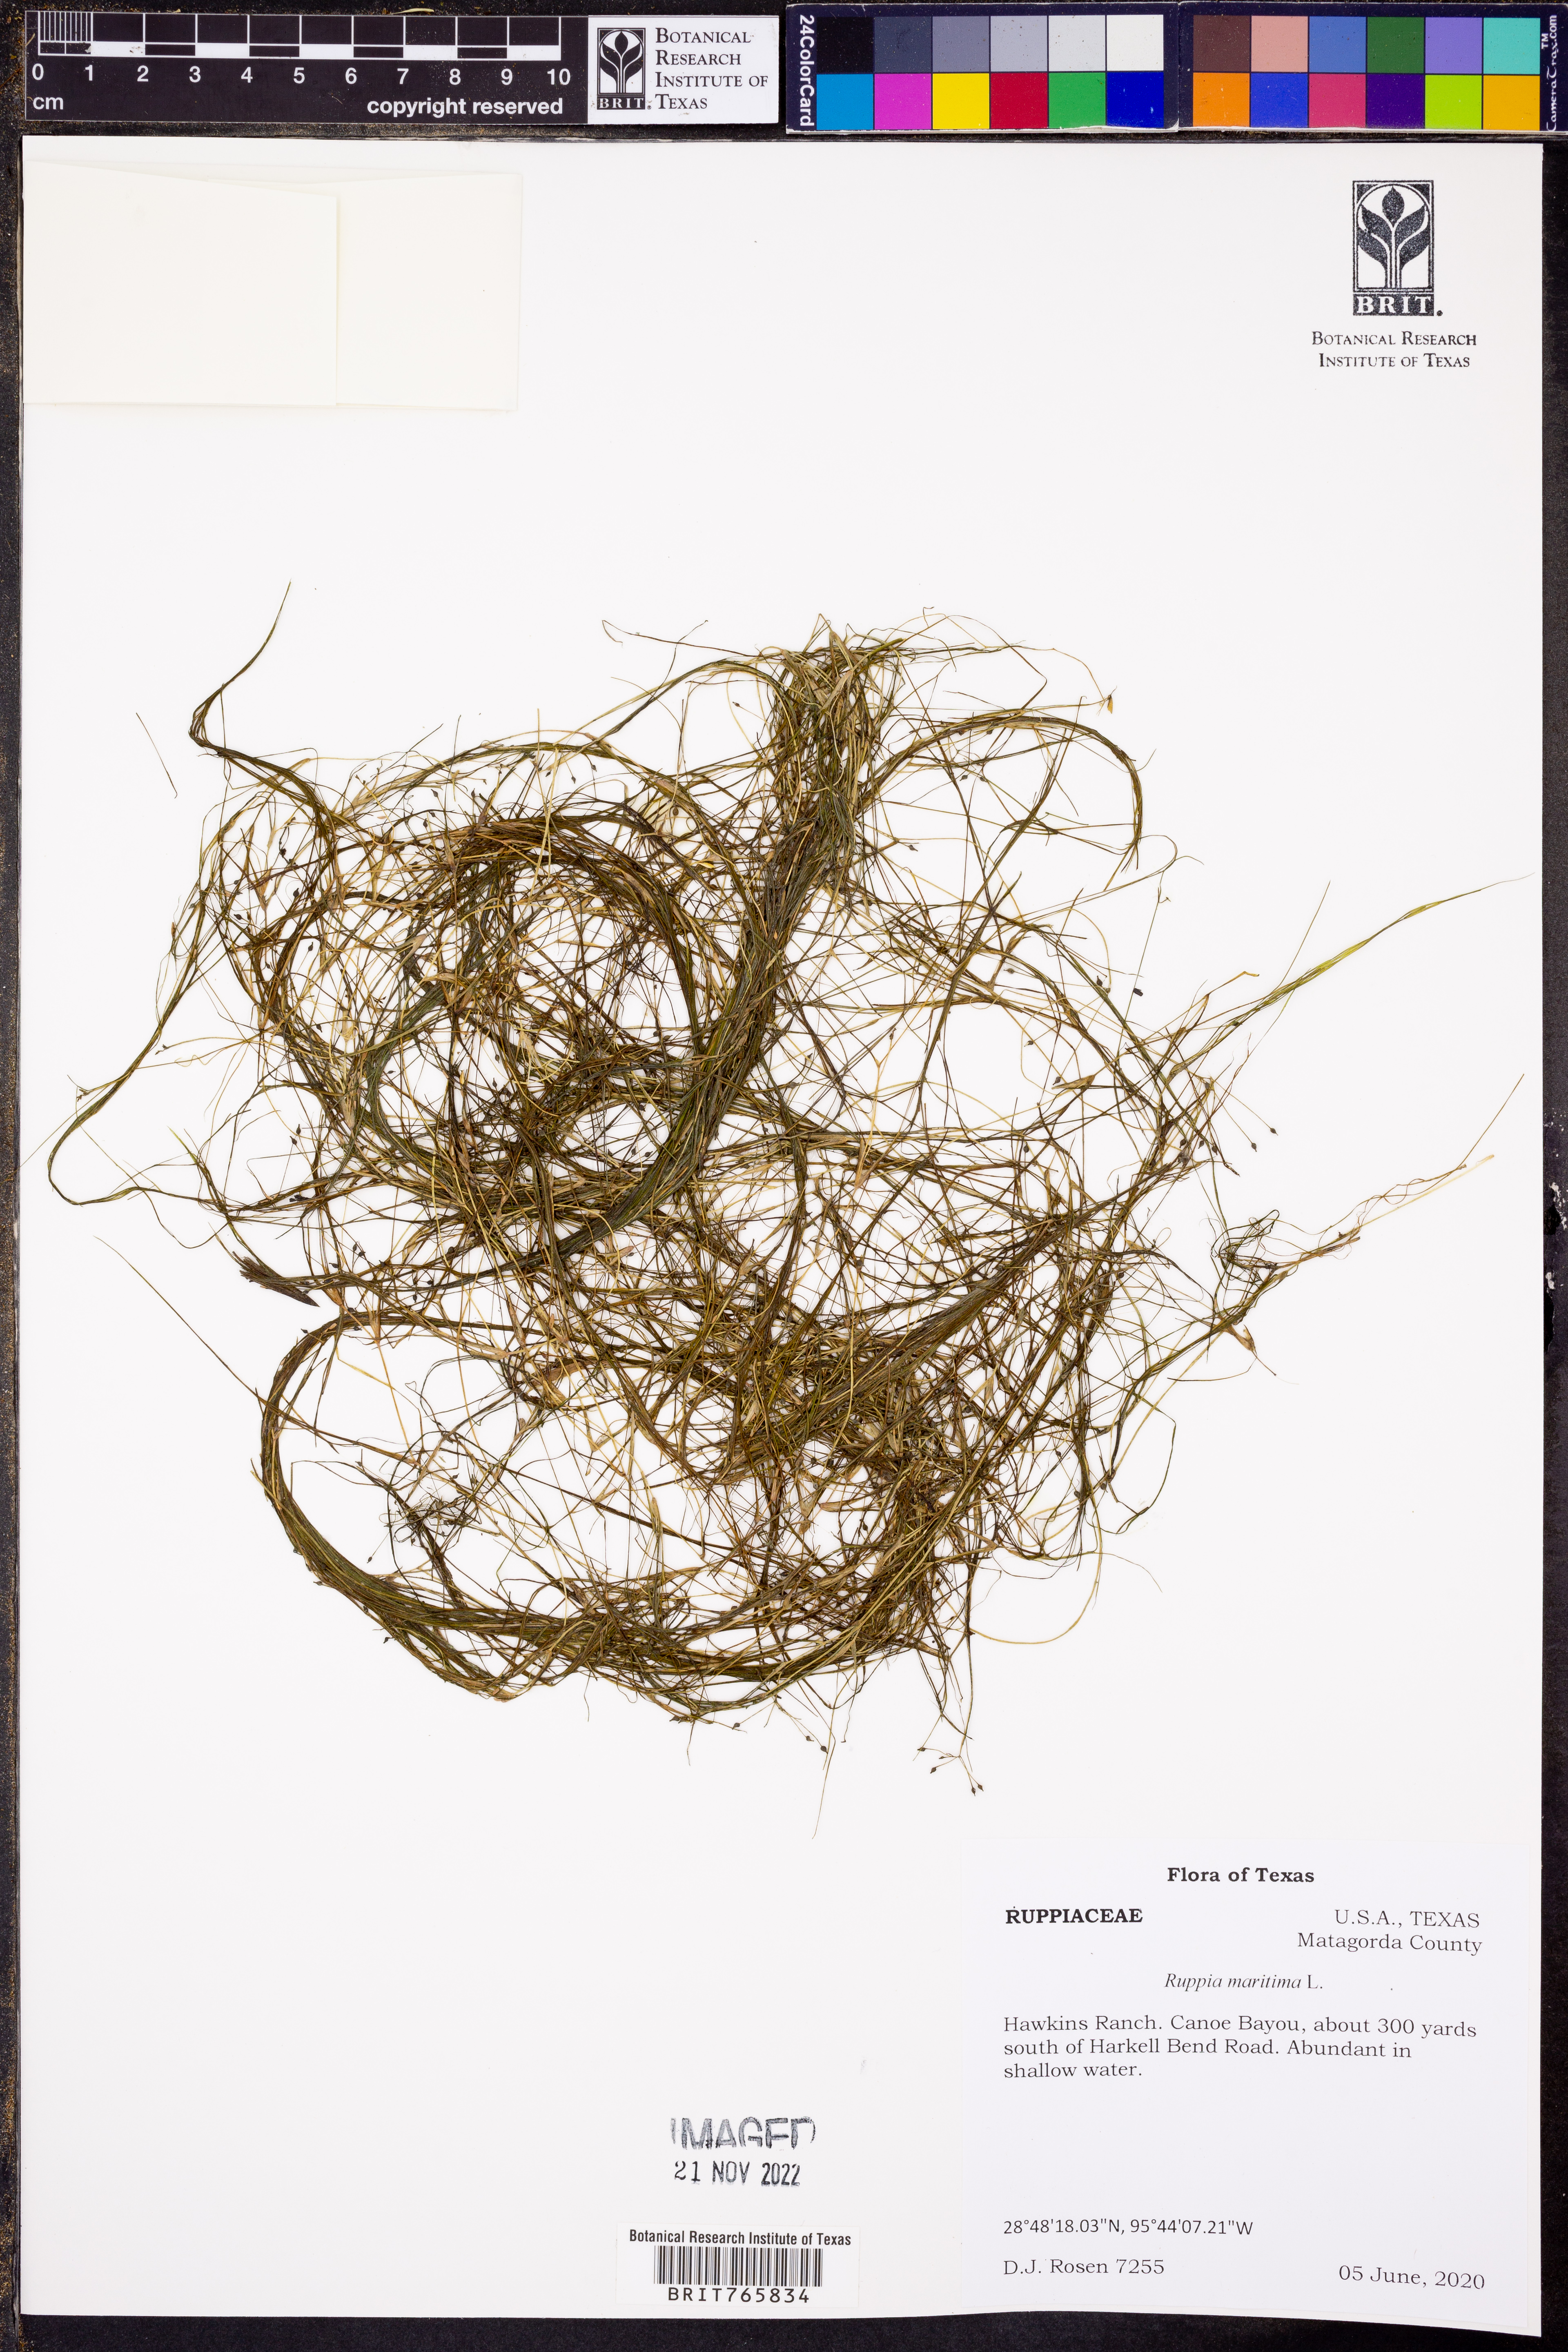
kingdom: Plantae
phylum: Tracheophyta
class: Liliopsida
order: Alismatales
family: Ruppiaceae
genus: Ruppia
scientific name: Ruppia maritima
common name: Beaked tasselweed
